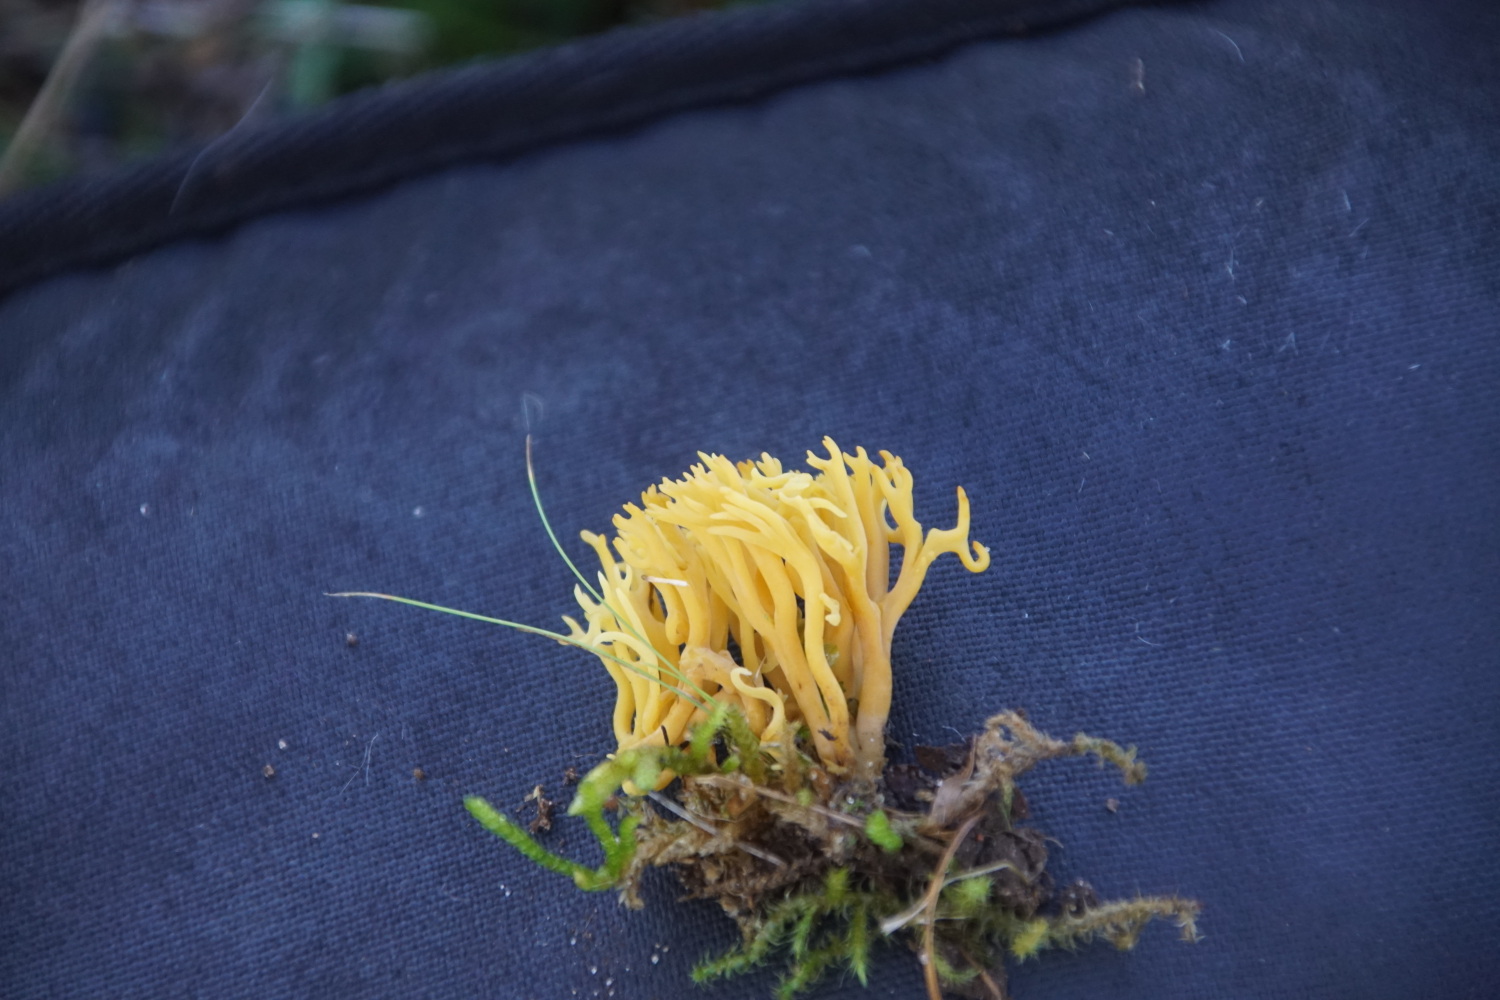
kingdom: Fungi
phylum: Basidiomycota
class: Agaricomycetes
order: Agaricales
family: Clavariaceae
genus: Clavulinopsis
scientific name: Clavulinopsis corniculata
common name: eng-køllesvamp
